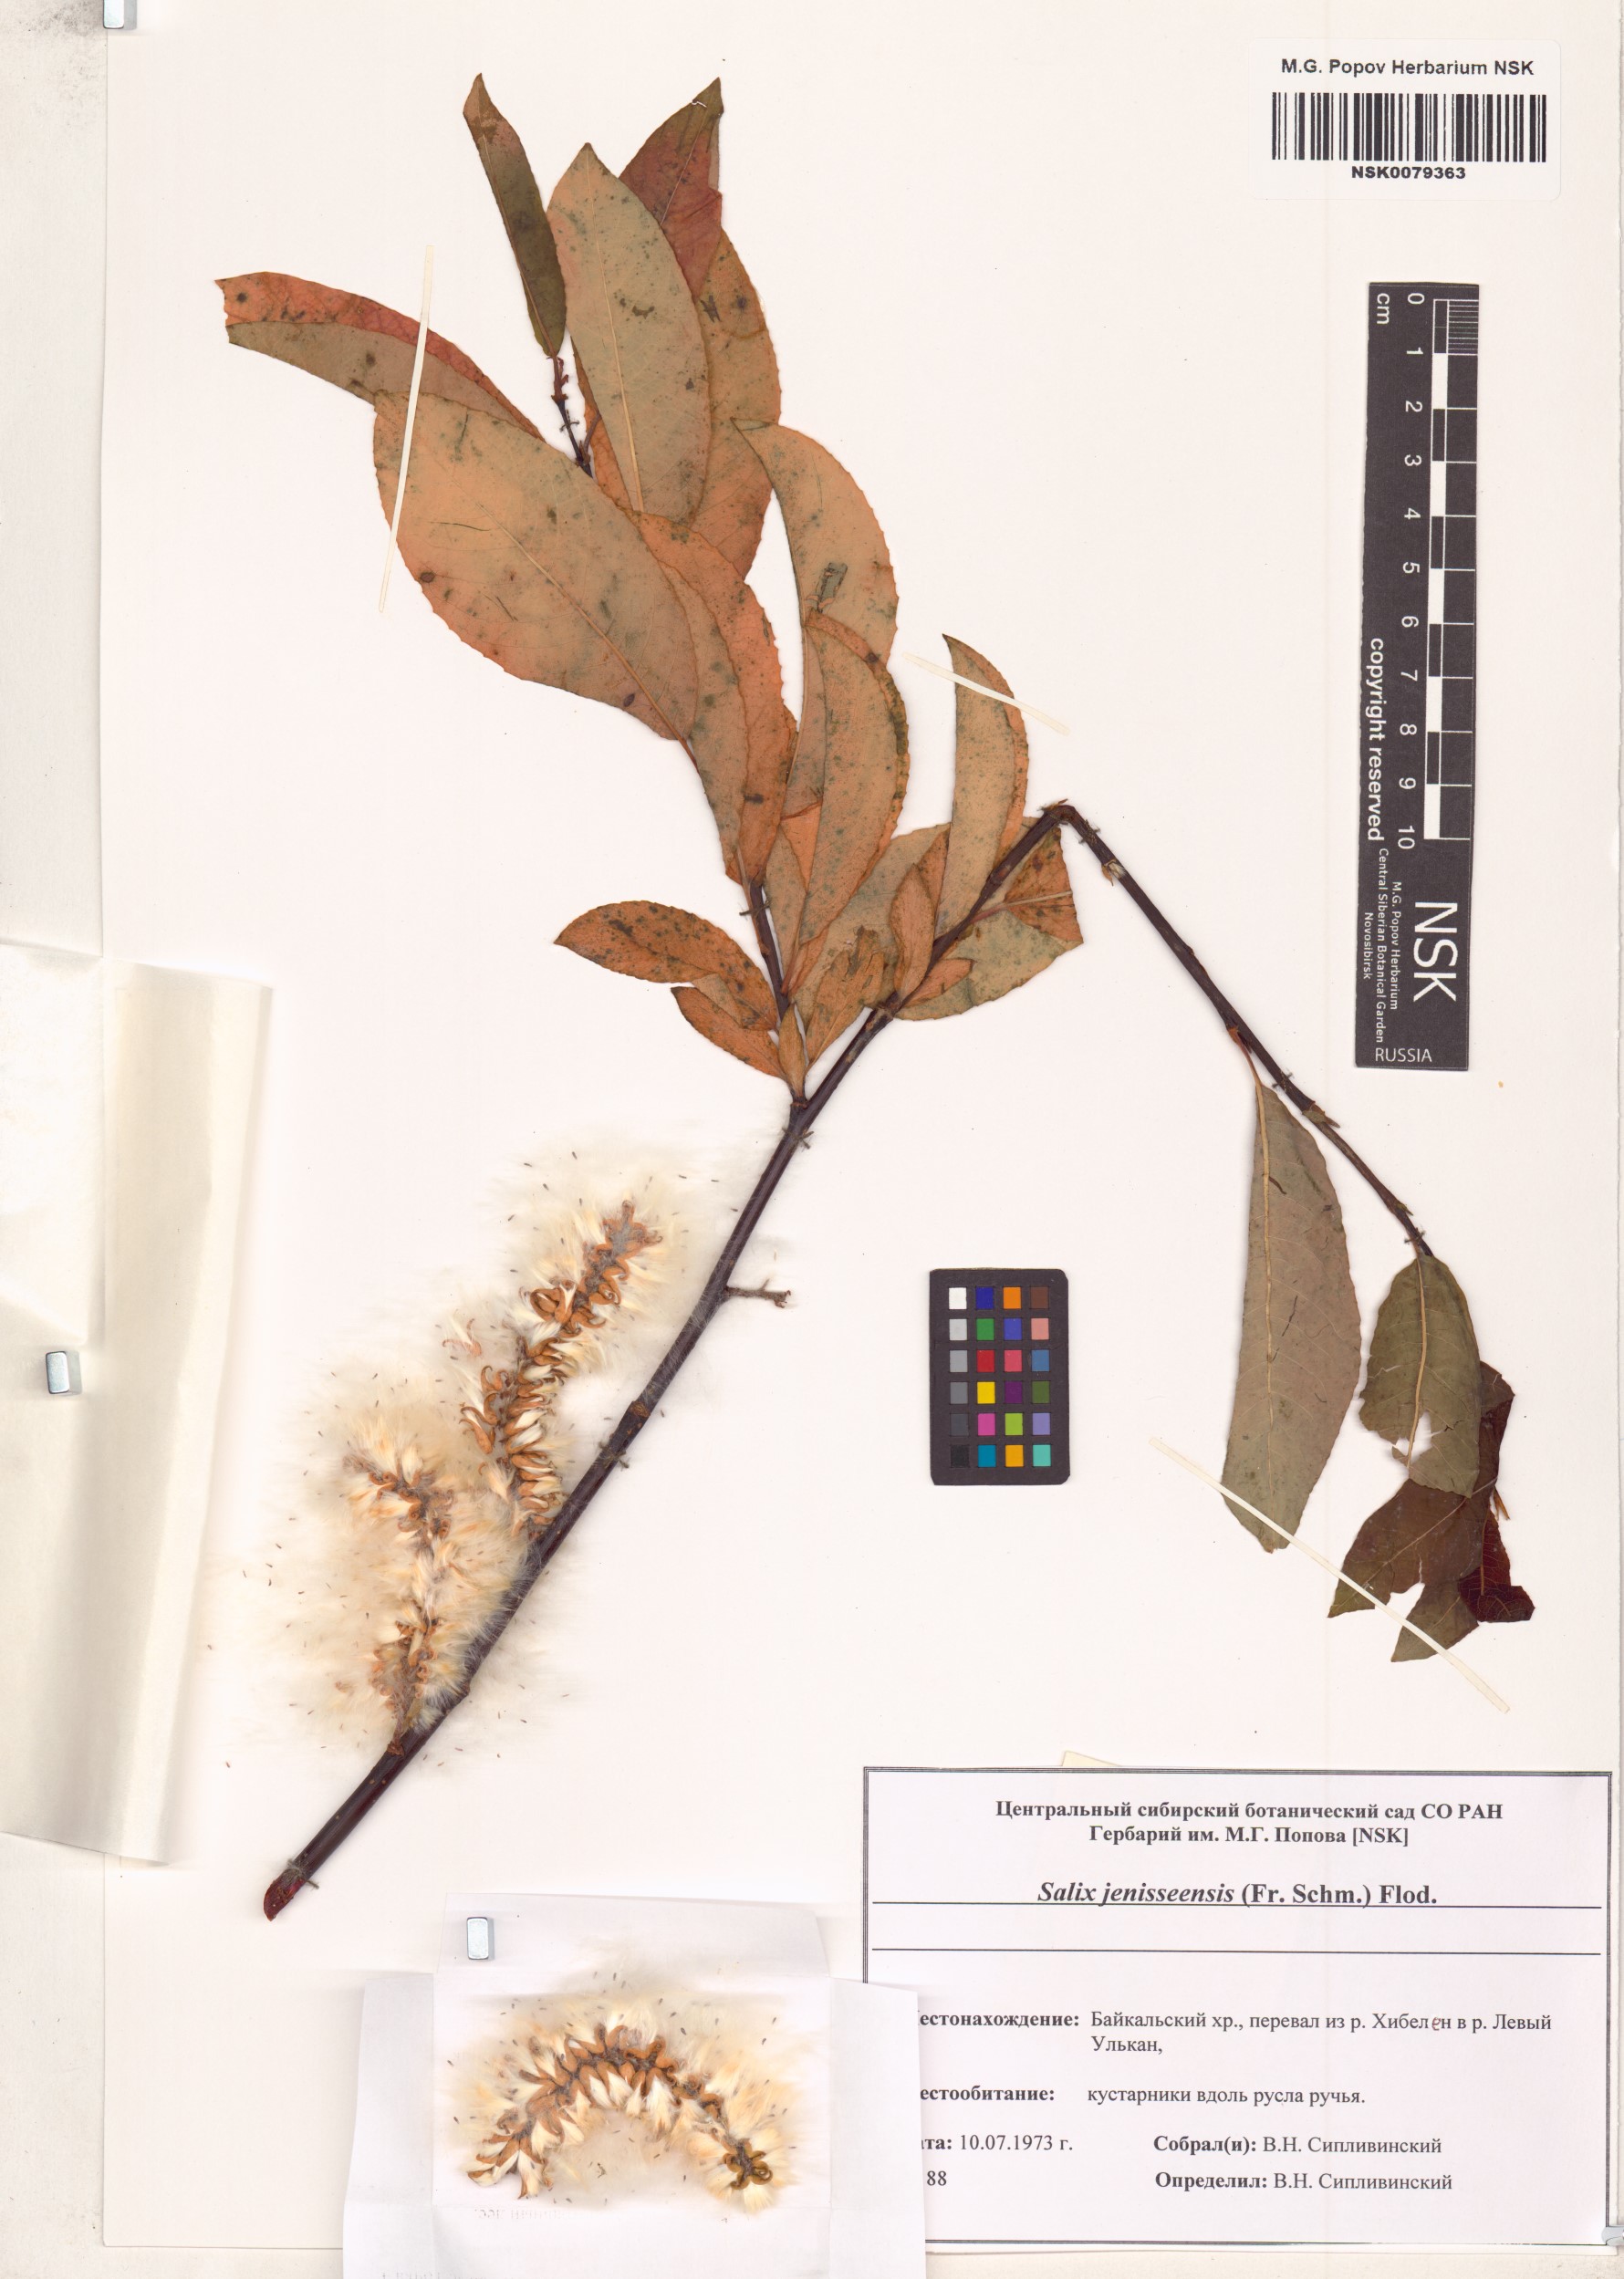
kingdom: Plantae
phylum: Tracheophyta
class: Magnoliopsida
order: Malpighiales
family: Salicaceae
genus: Salix
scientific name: Salix jenisseensis
